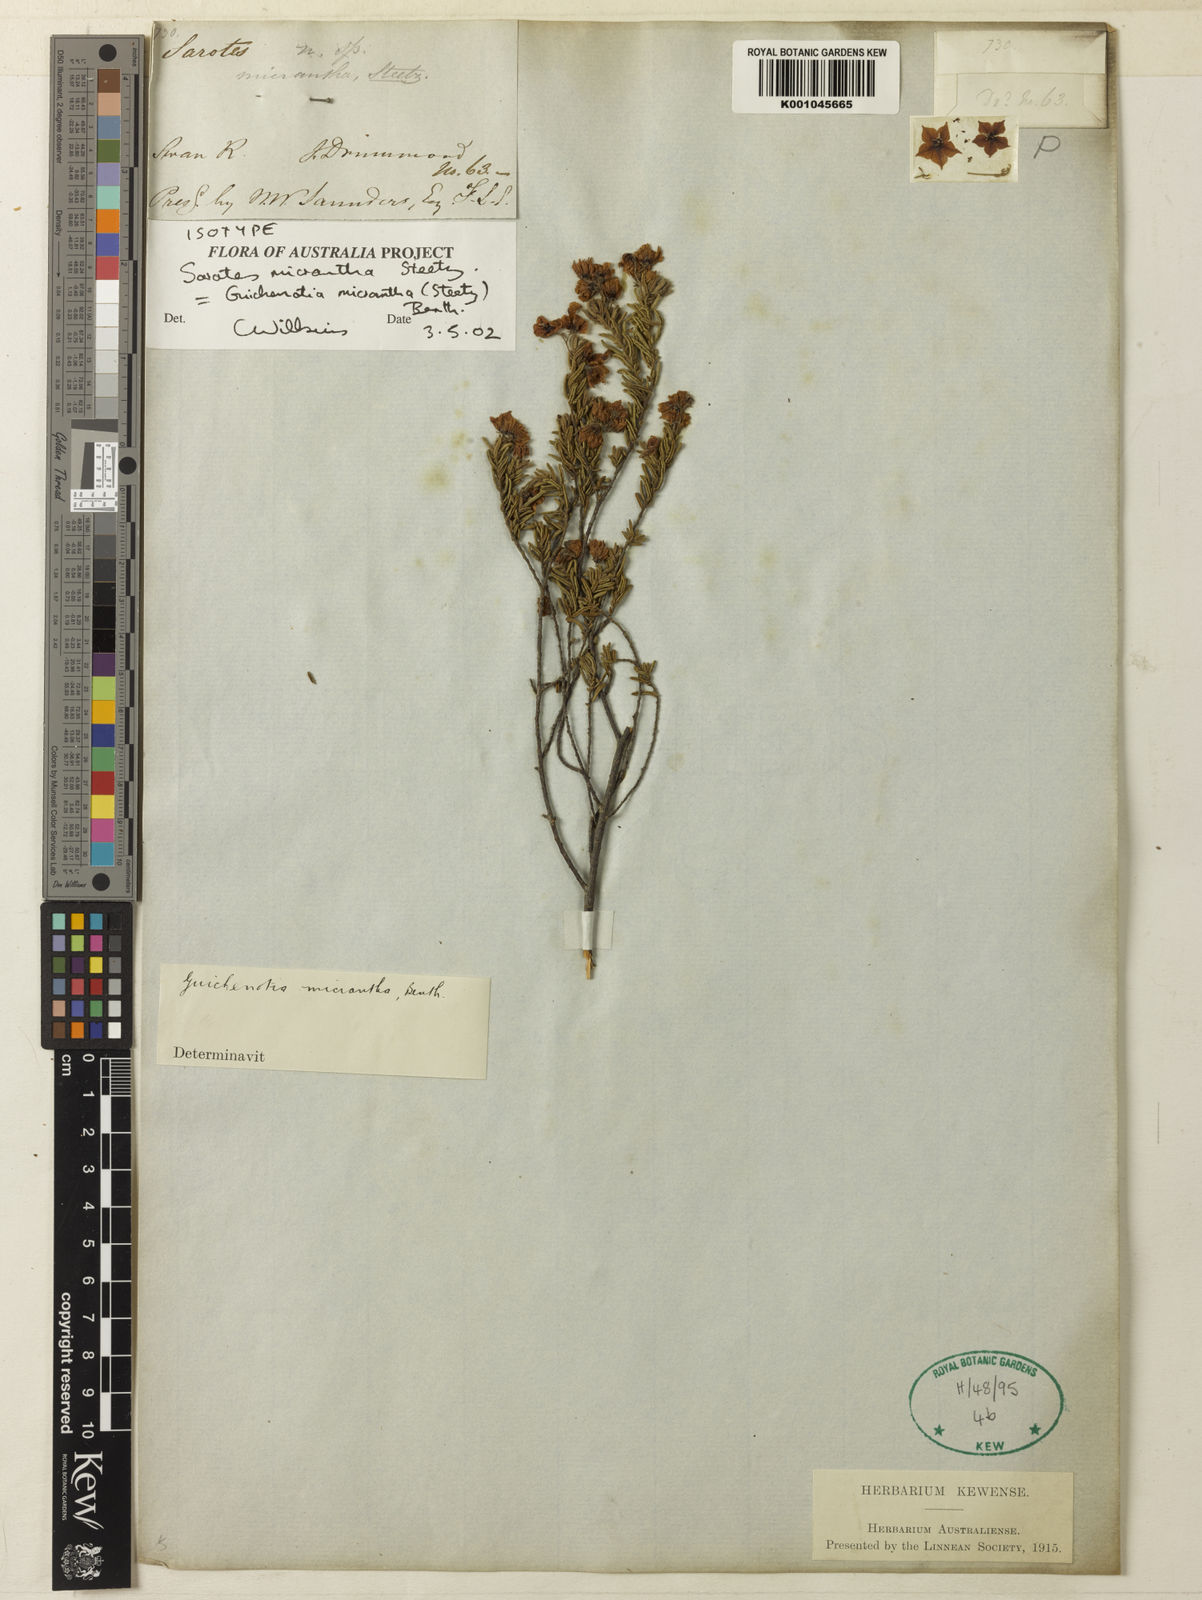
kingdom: Plantae
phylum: Tracheophyta
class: Magnoliopsida
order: Malvales
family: Malvaceae
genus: Guichenotia
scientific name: Guichenotia micrantha
